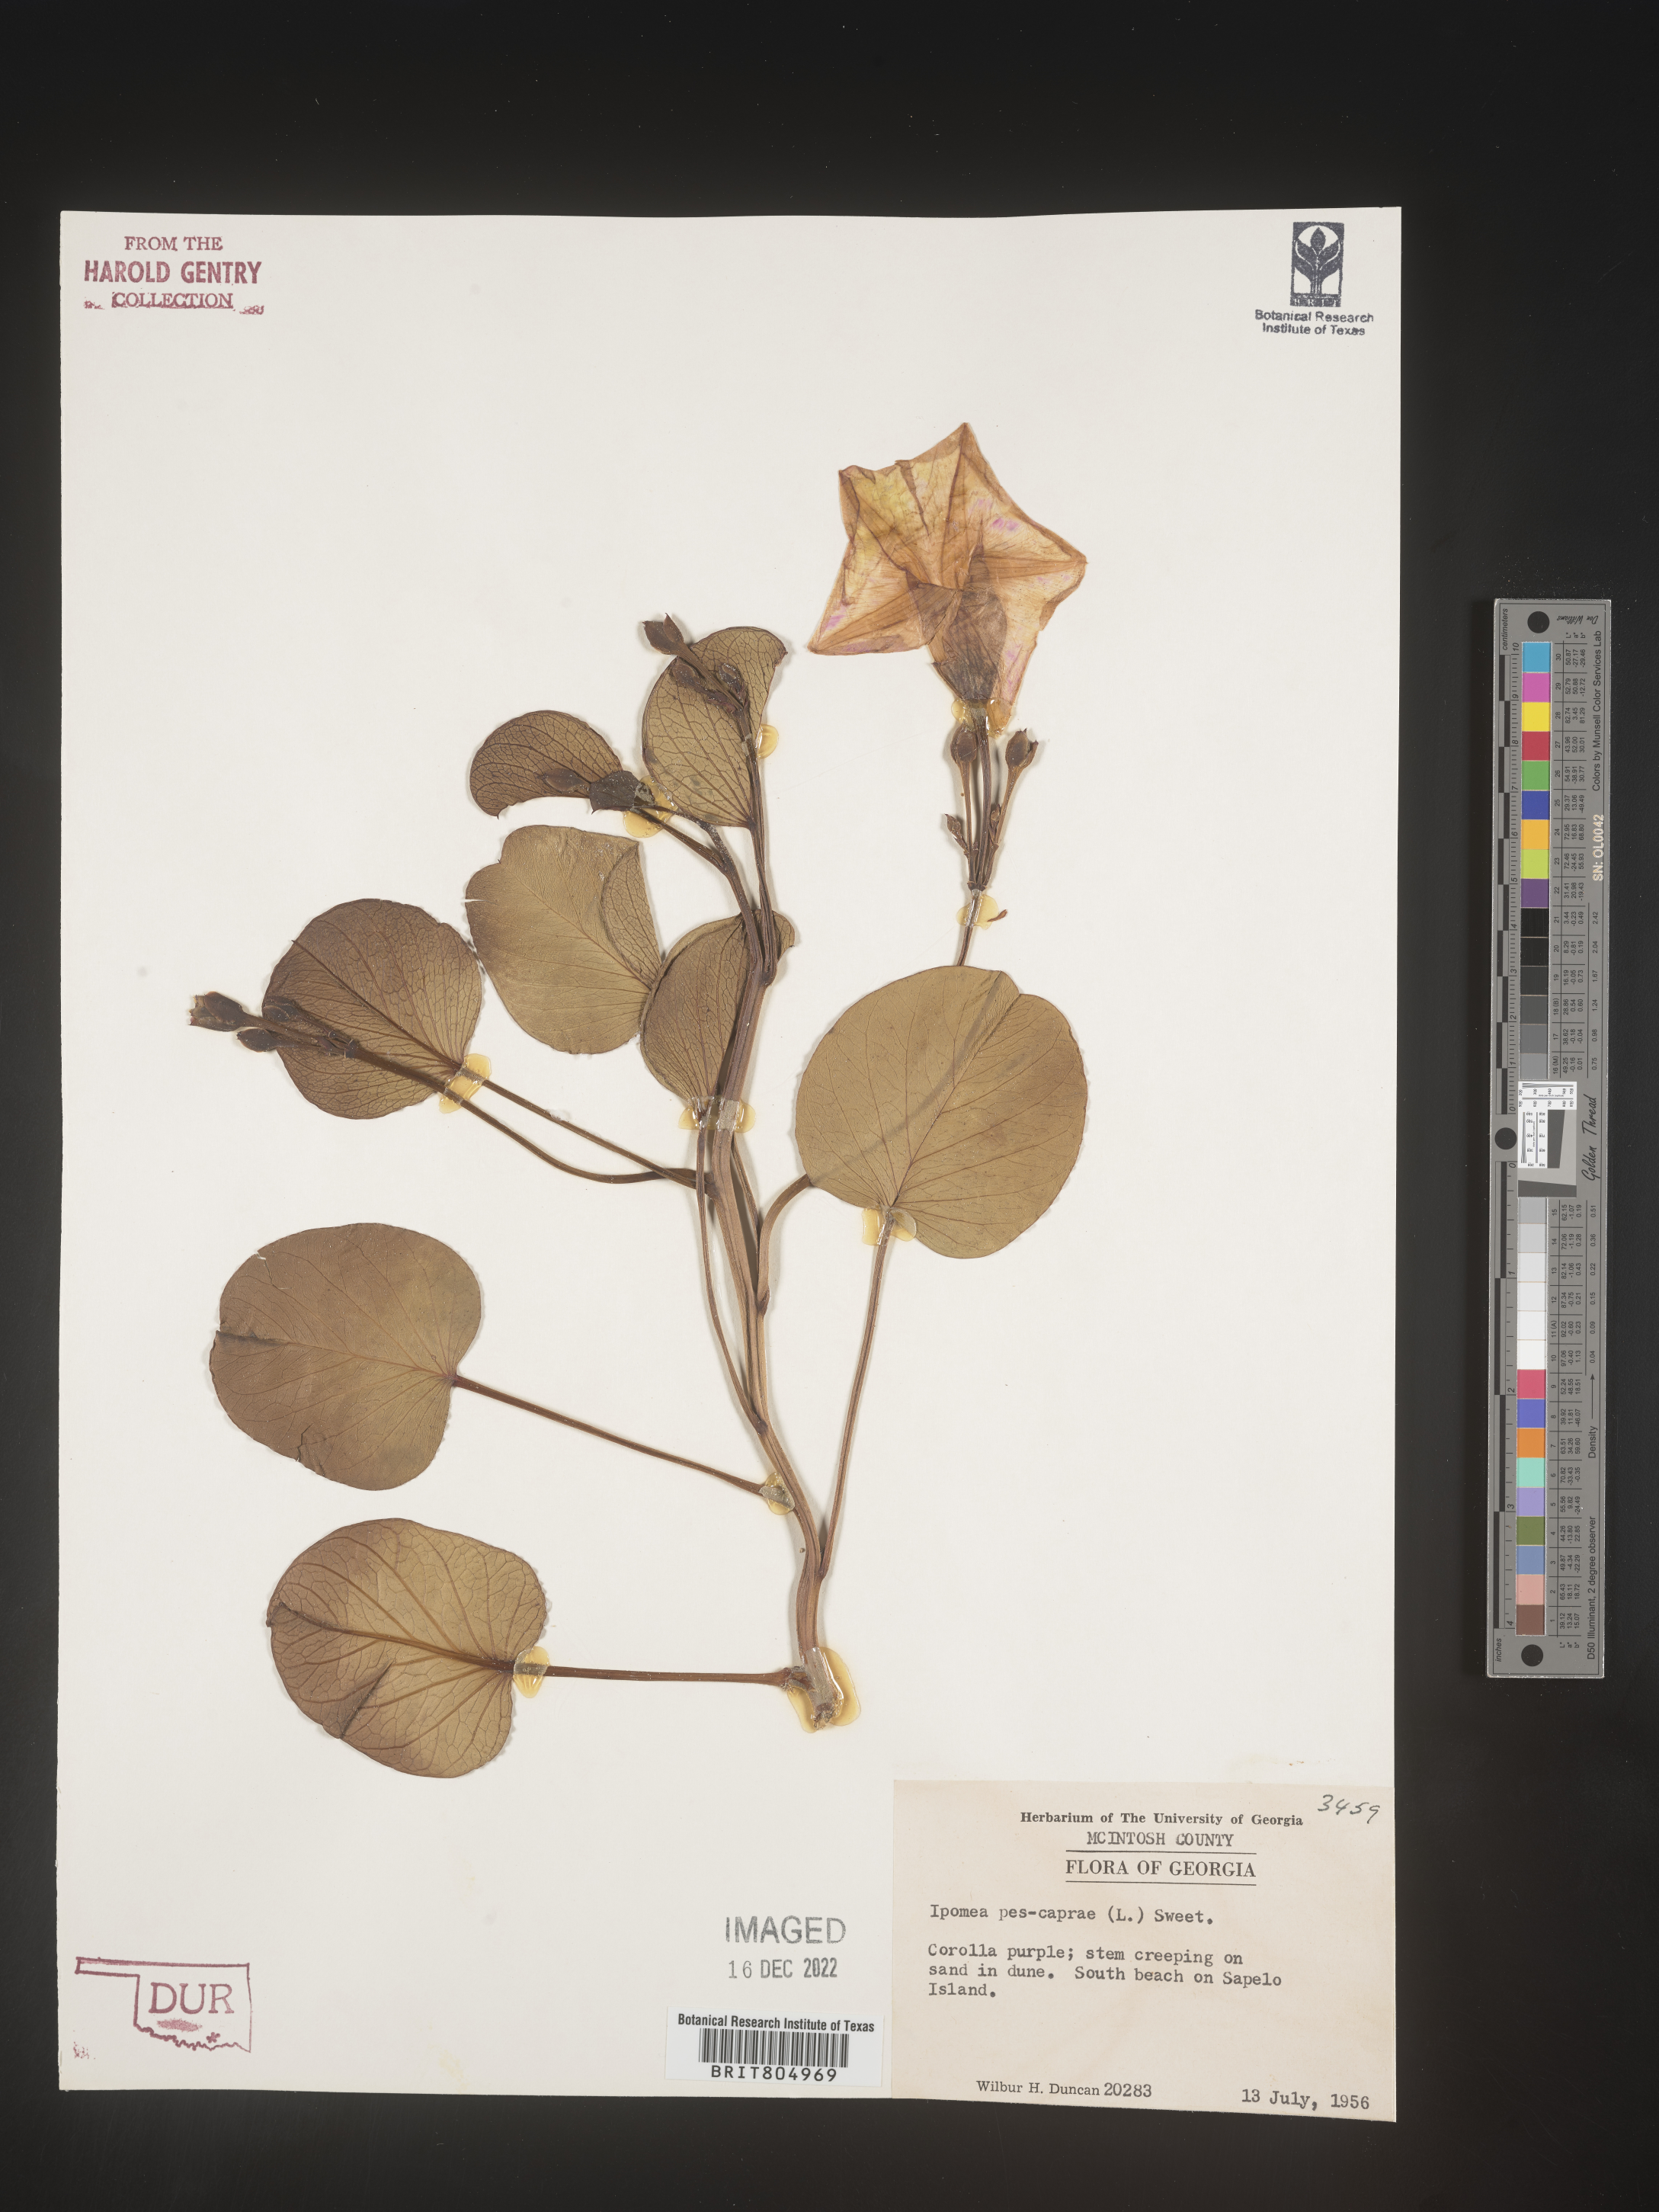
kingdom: Plantae
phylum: Tracheophyta
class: Magnoliopsida
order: Solanales
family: Convolvulaceae
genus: Ipomoea
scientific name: Ipomoea pes-caprae
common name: Beach morning glory
